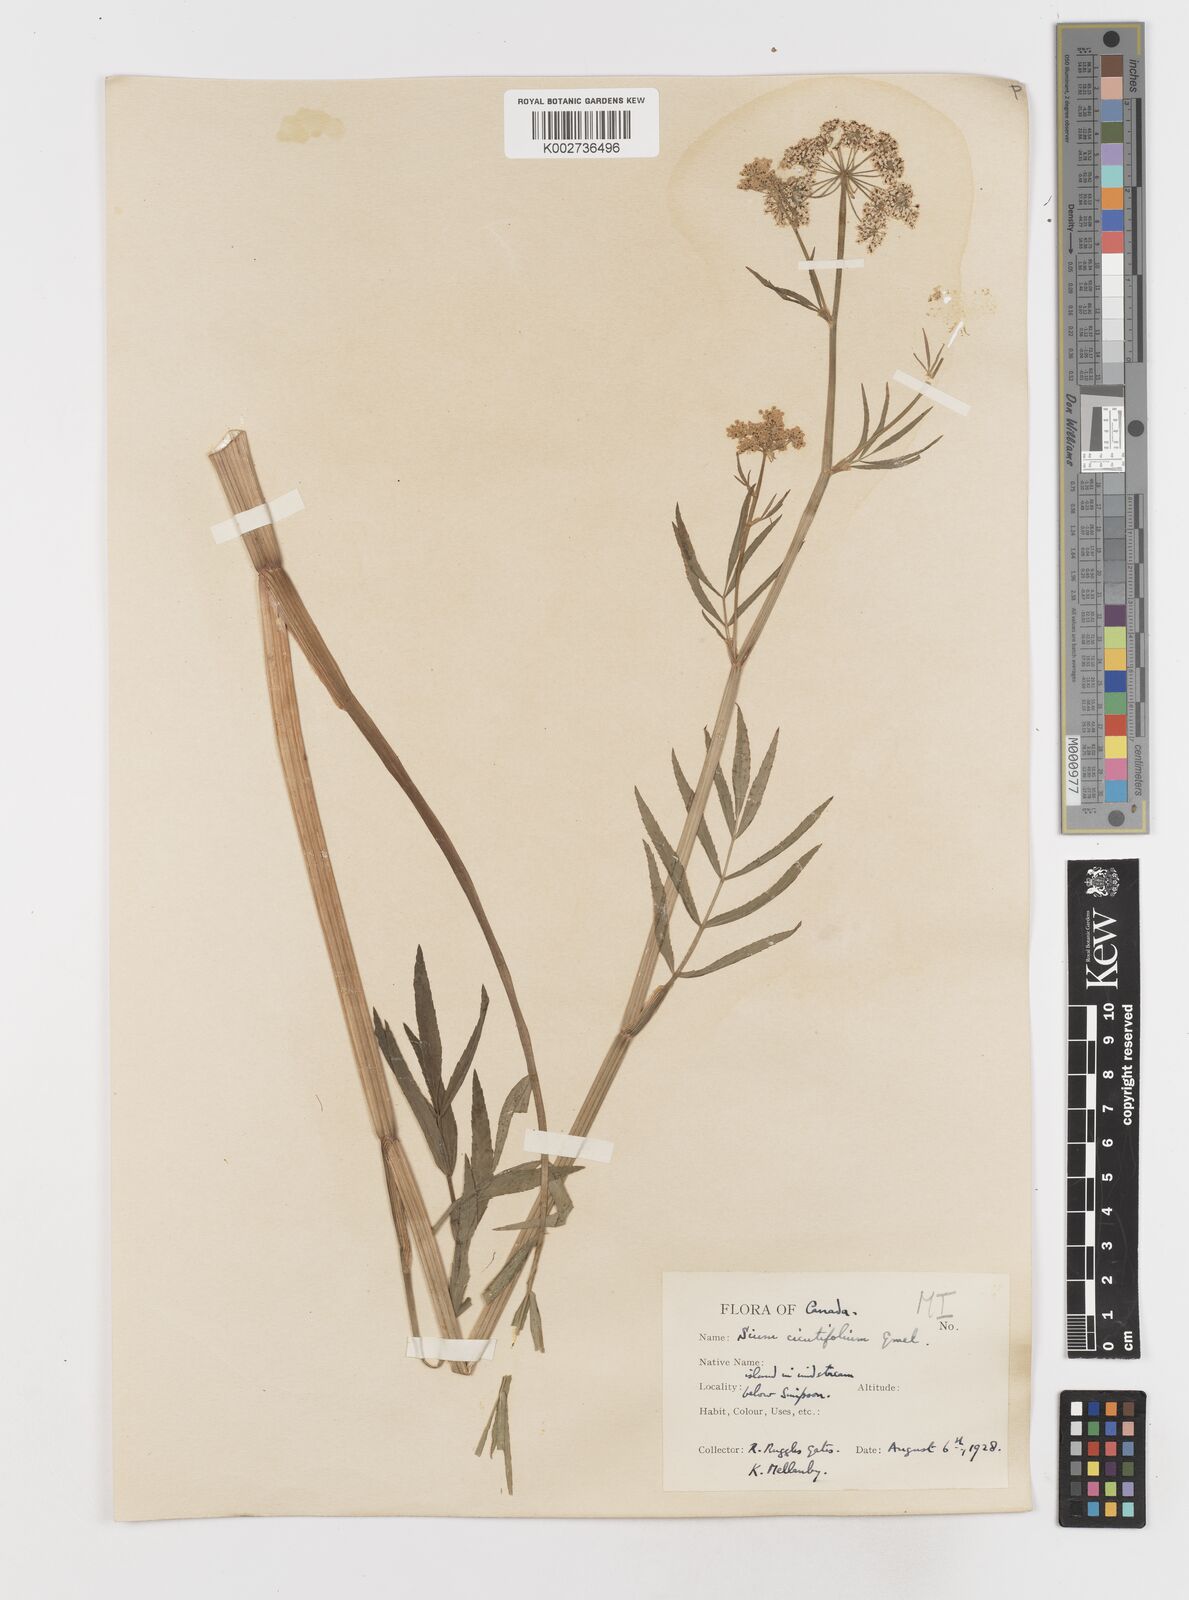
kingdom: Plantae
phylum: Tracheophyta
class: Magnoliopsida
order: Apiales
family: Apiaceae
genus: Sium
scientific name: Sium suave
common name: Hemlock water-parsnip
